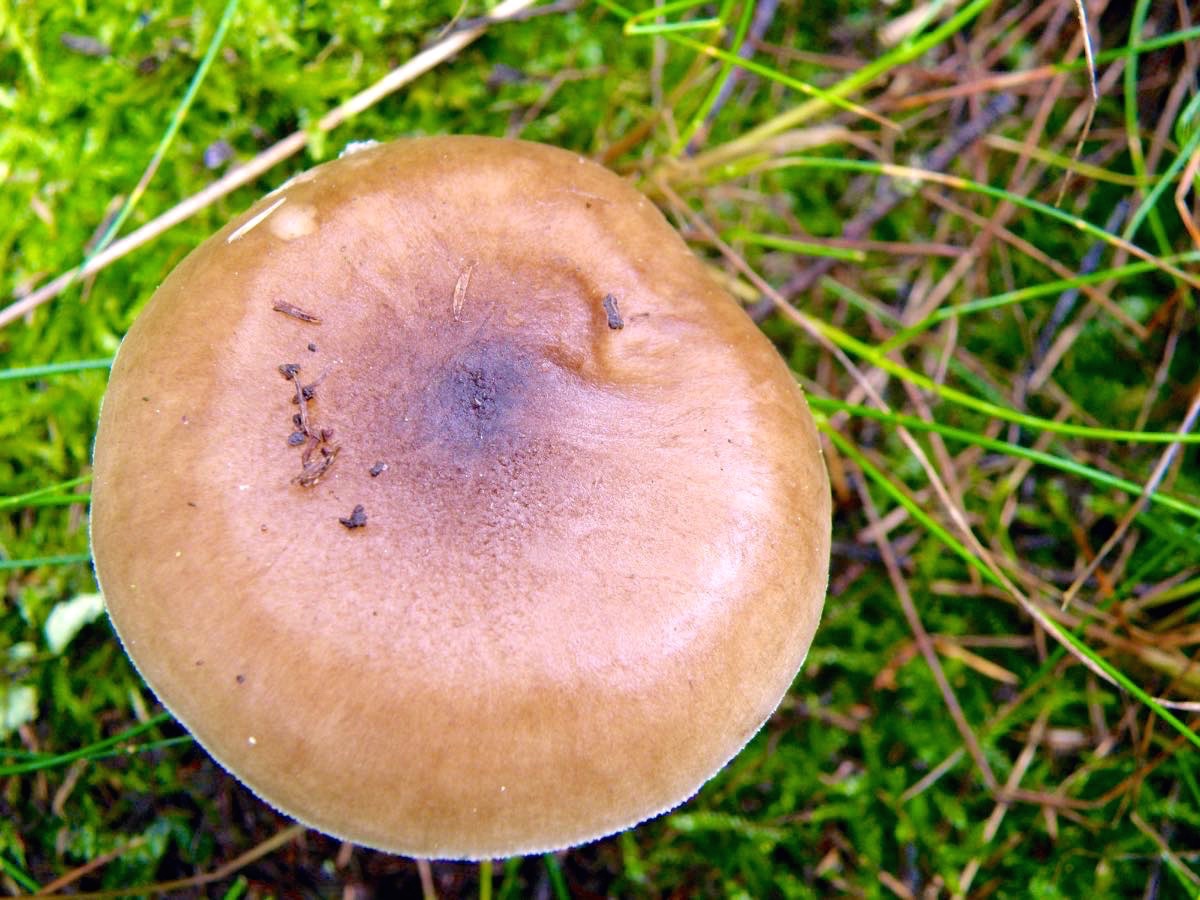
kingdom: Fungi
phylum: Basidiomycota
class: Agaricomycetes
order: Agaricales
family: Pluteaceae
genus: Pluteus
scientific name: Pluteus cervinus
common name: sodfarvet skærmhat
